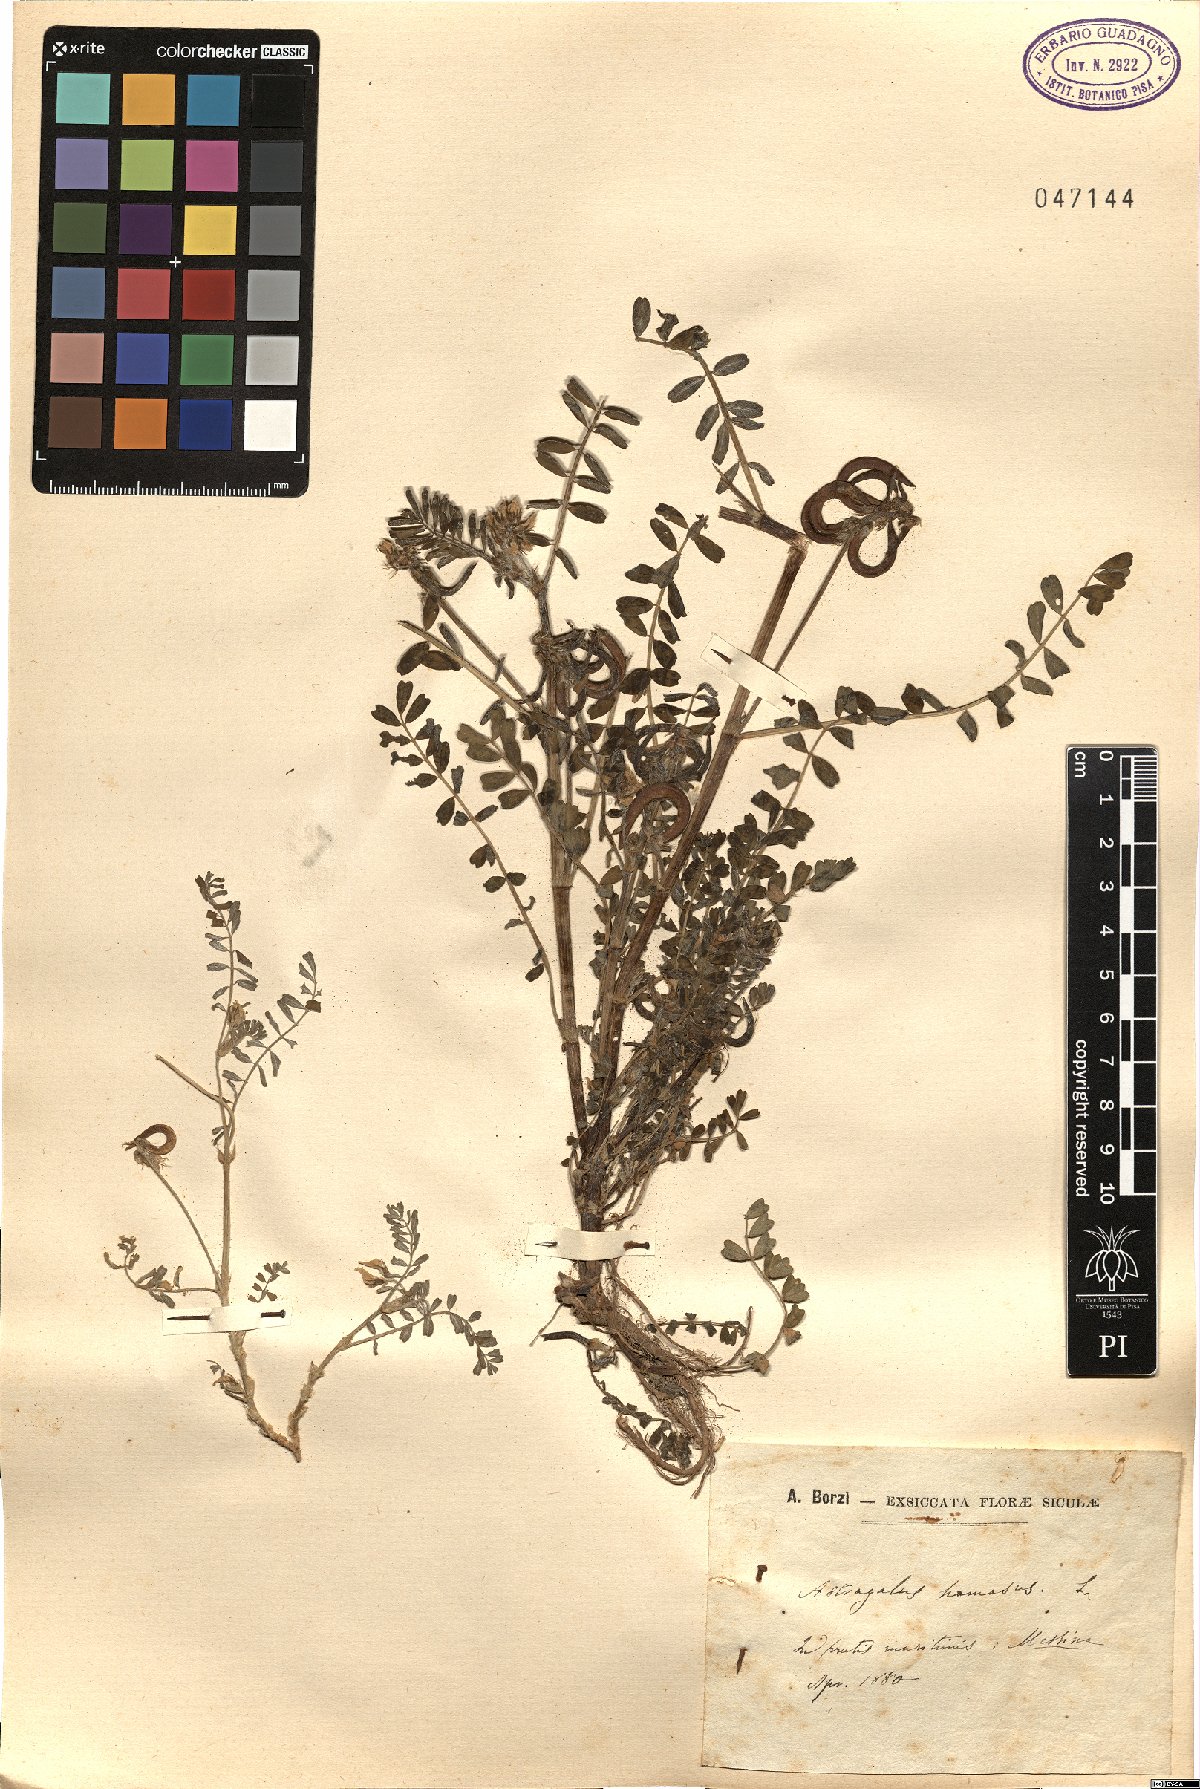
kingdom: Plantae
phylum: Tracheophyta
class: Magnoliopsida
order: Fabales
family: Fabaceae
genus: Astragalus
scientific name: Astragalus hamosus
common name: European milkvetch
